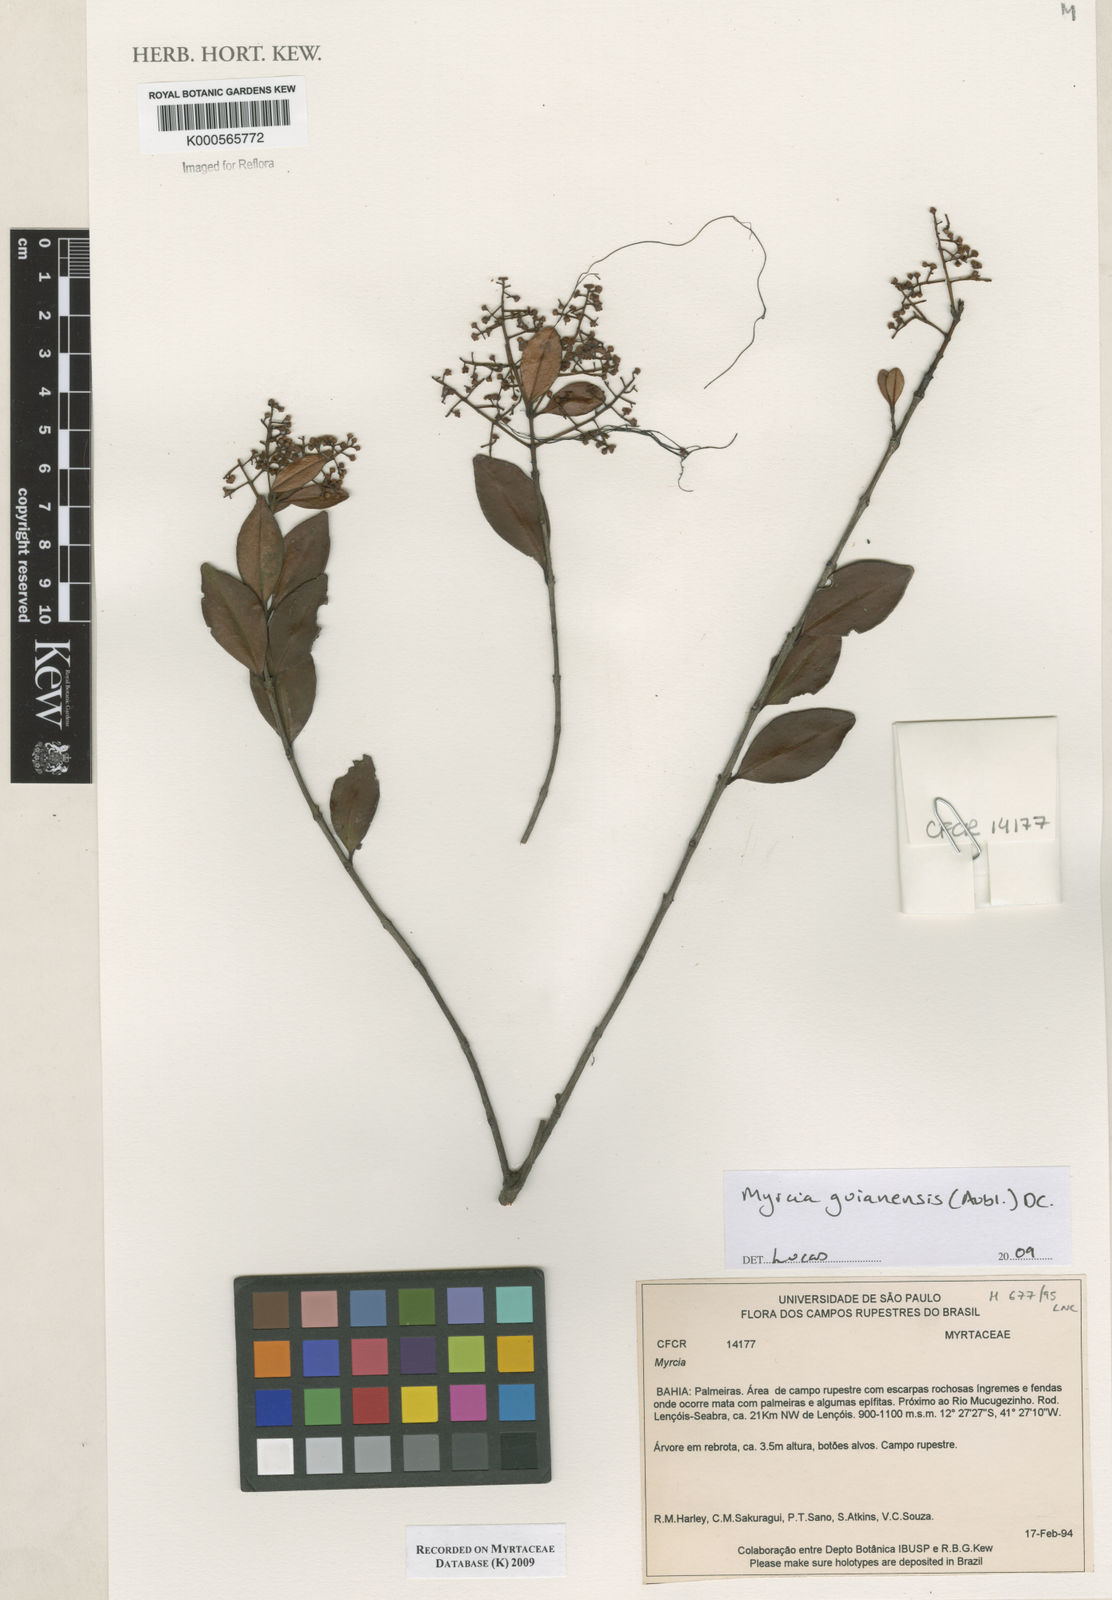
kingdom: Plantae
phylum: Tracheophyta
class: Magnoliopsida
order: Myrtales
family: Myrtaceae
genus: Myrcia
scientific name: Myrcia guianensis
